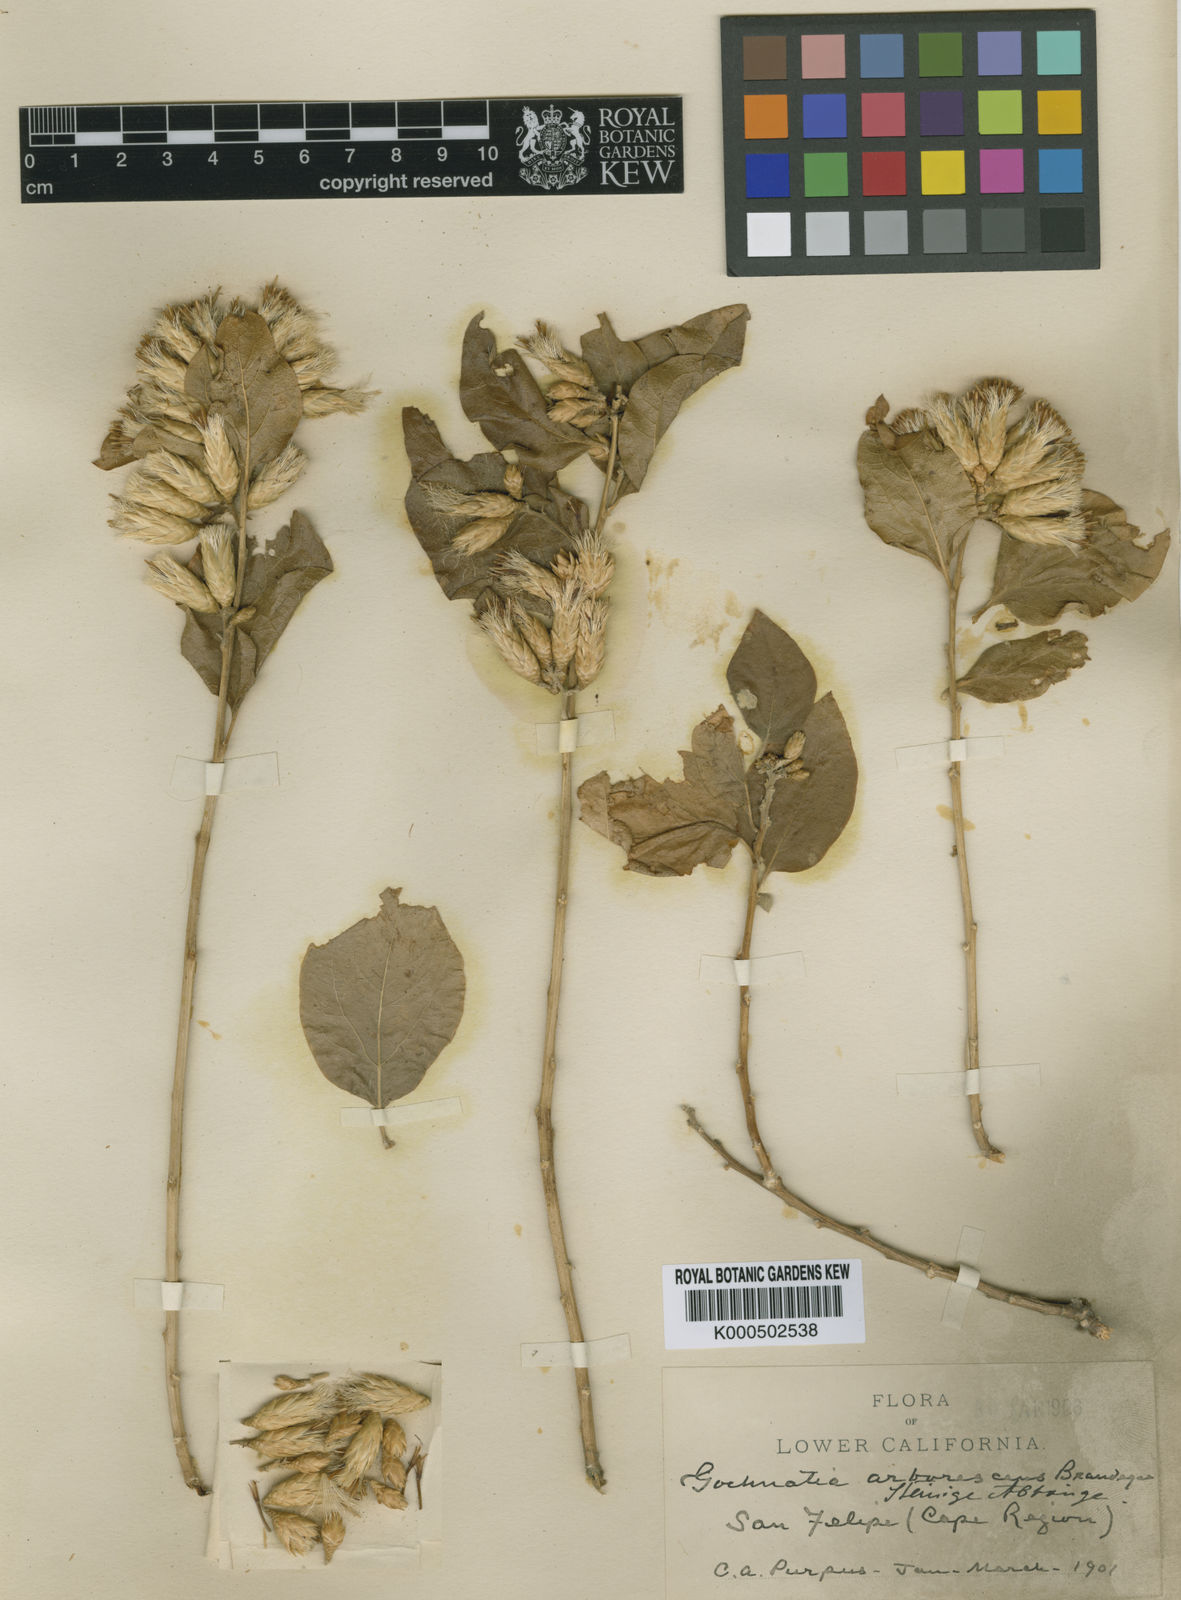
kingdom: Plantae
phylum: Tracheophyta
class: Magnoliopsida
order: Asterales
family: Asteraceae
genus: Nahuatlea
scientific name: Nahuatlea arborescens
